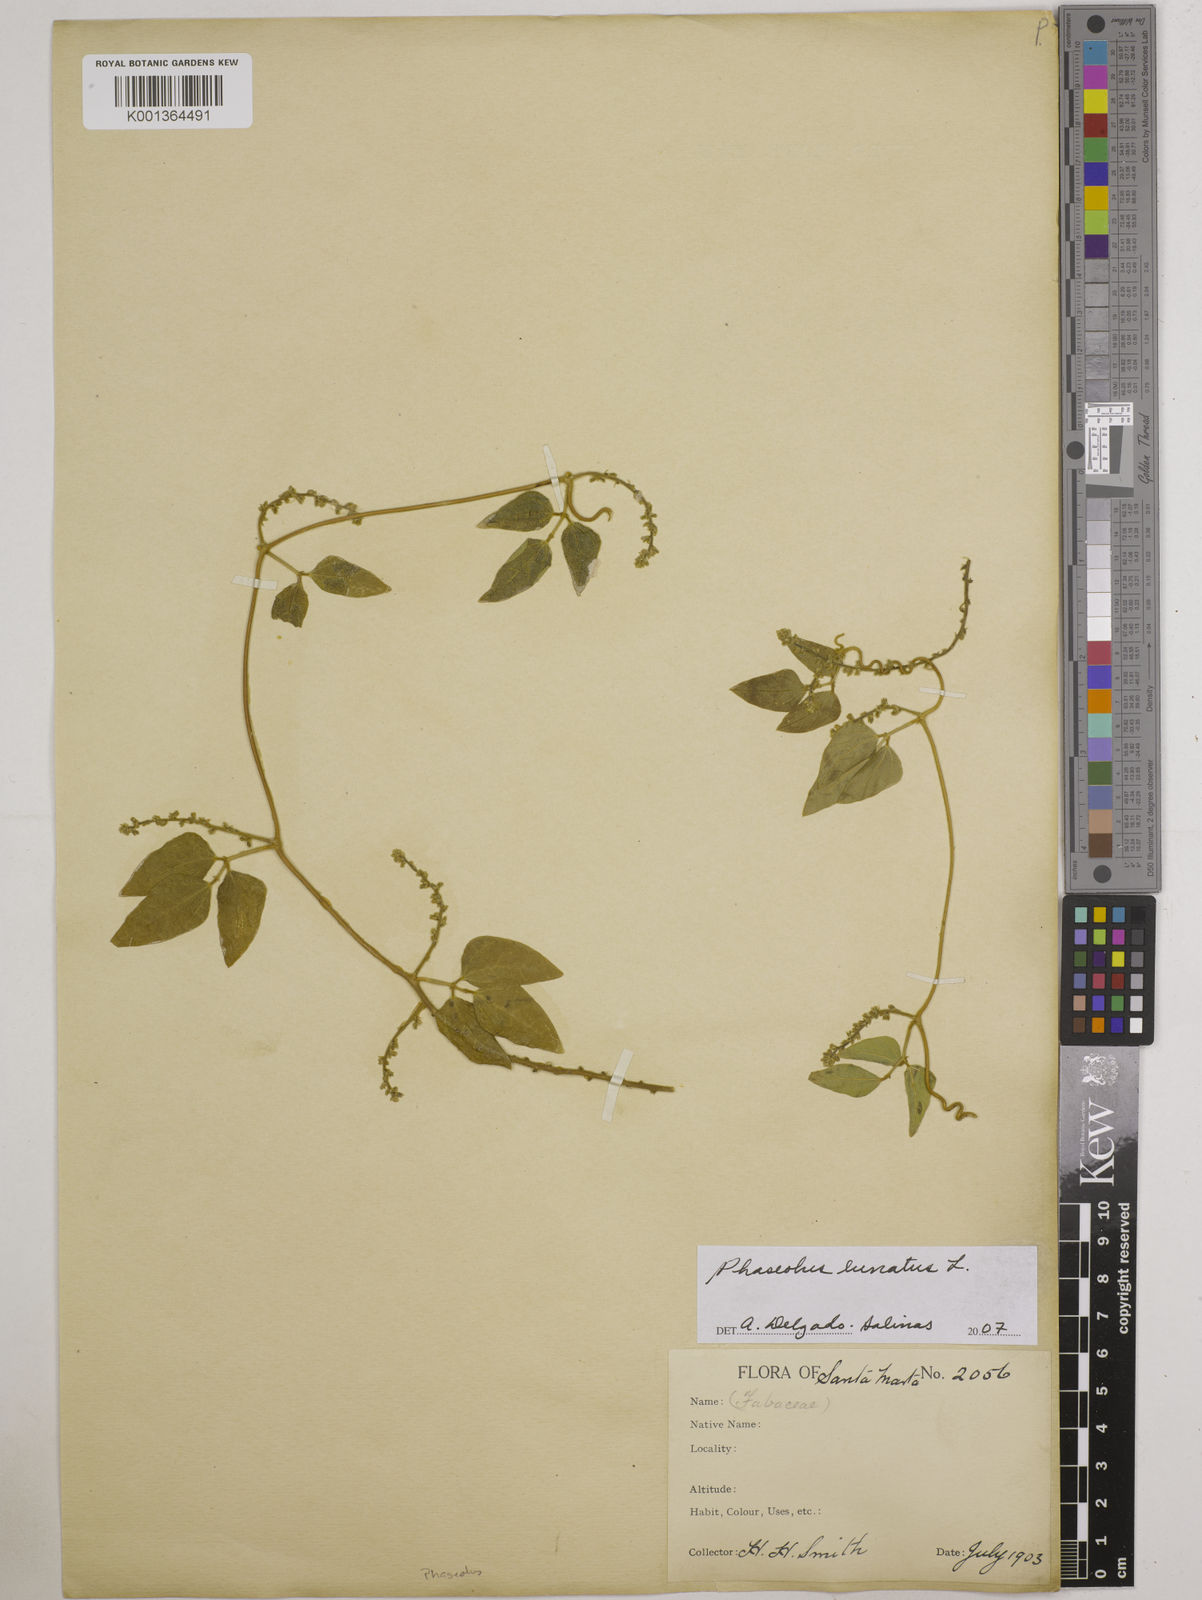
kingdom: Plantae
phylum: Tracheophyta
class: Magnoliopsida
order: Fabales
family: Fabaceae
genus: Phaseolus
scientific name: Phaseolus lunatus
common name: Sieva bean
